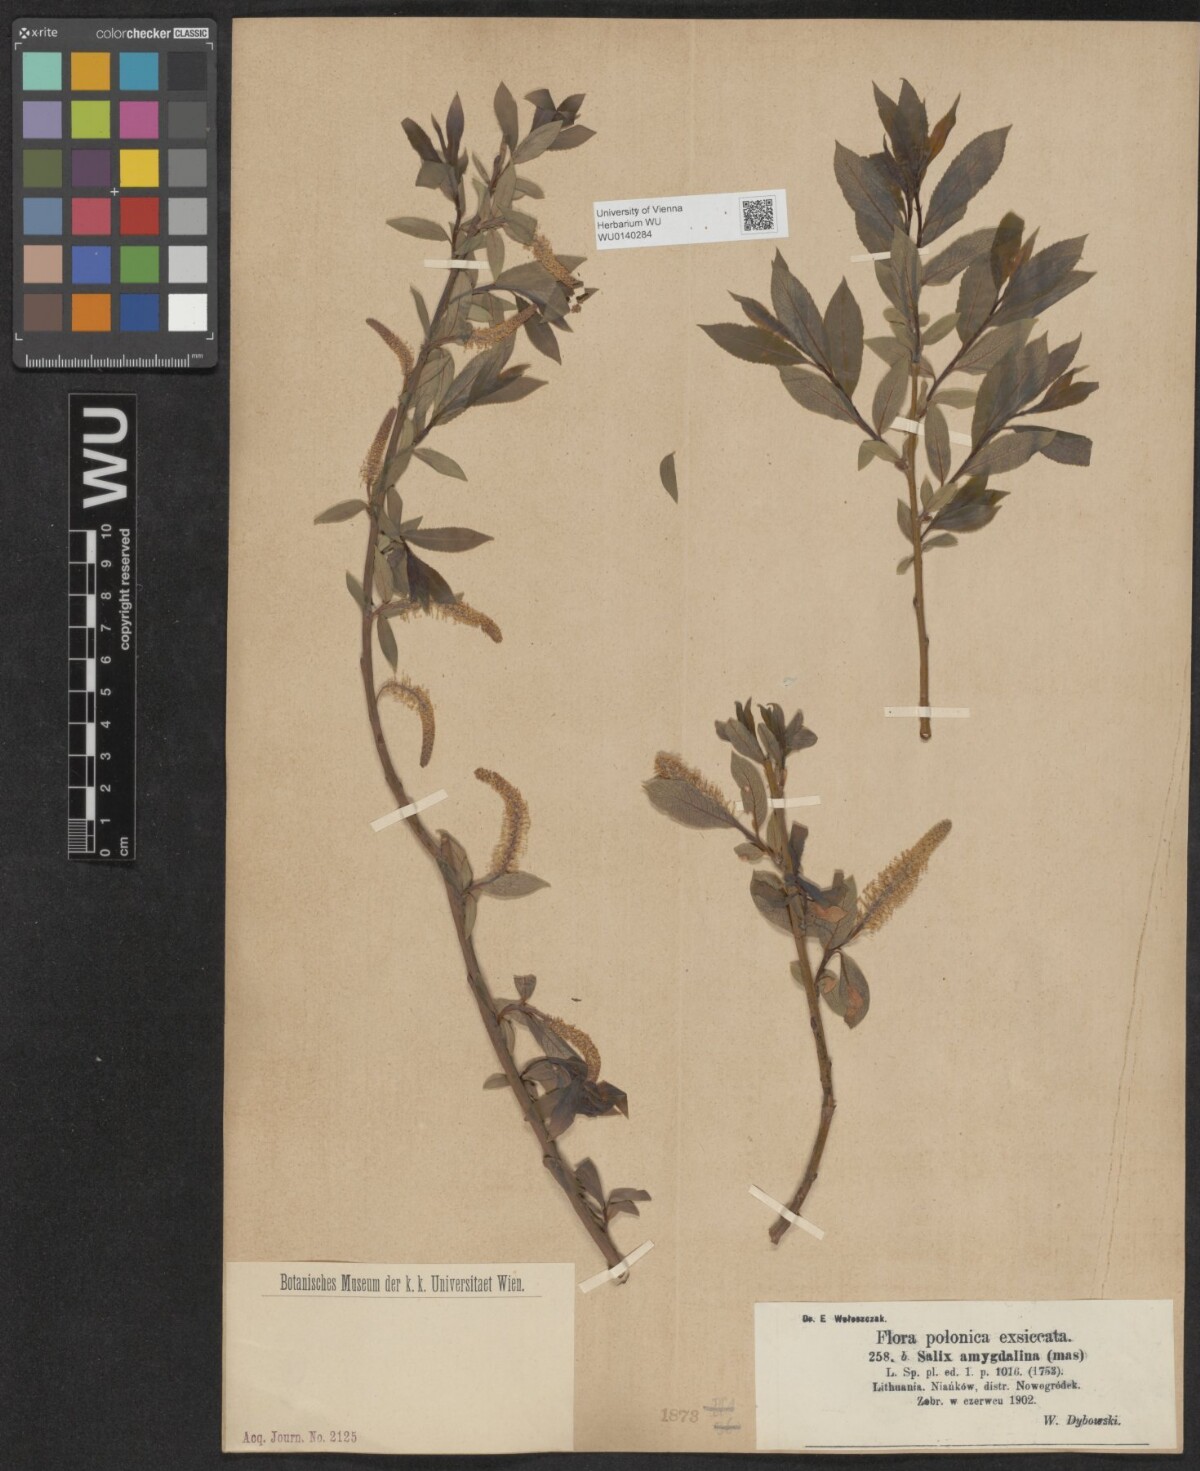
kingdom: Plantae
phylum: Tracheophyta
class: Magnoliopsida
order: Malpighiales
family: Salicaceae
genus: Salix
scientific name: Salix triandra
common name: Almond willow
